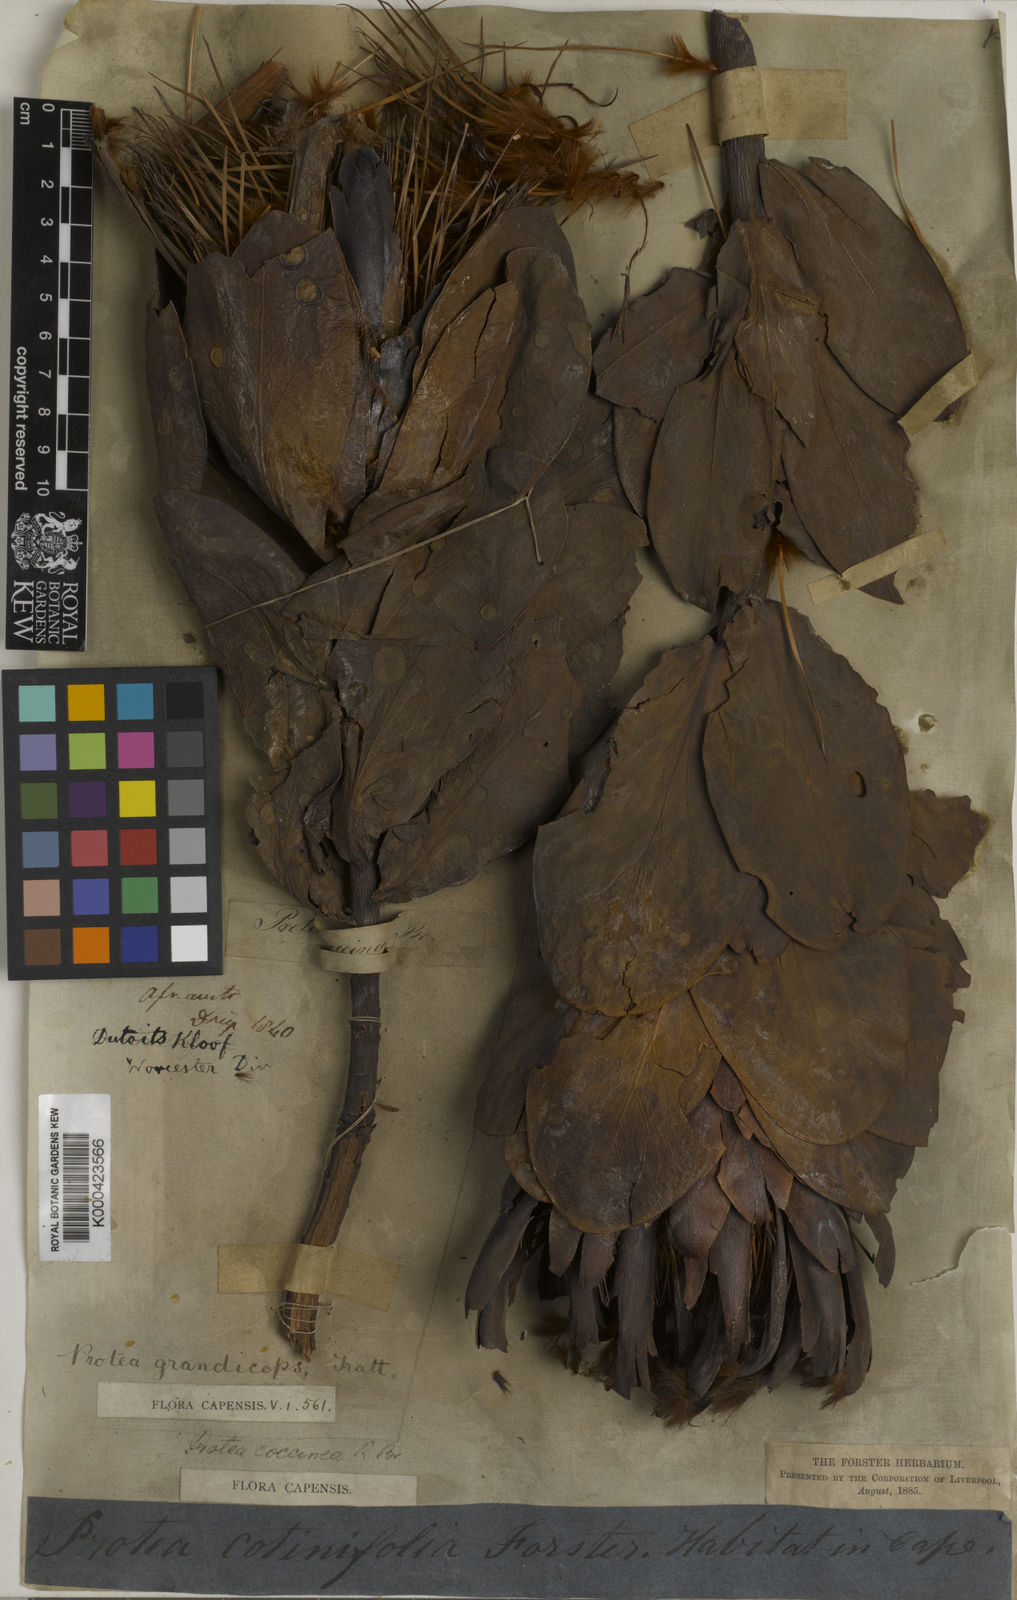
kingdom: Plantae
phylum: Tracheophyta
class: Magnoliopsida
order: Proteales
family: Proteaceae
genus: Protea
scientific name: Protea grandiceps
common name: Red sugarbush
